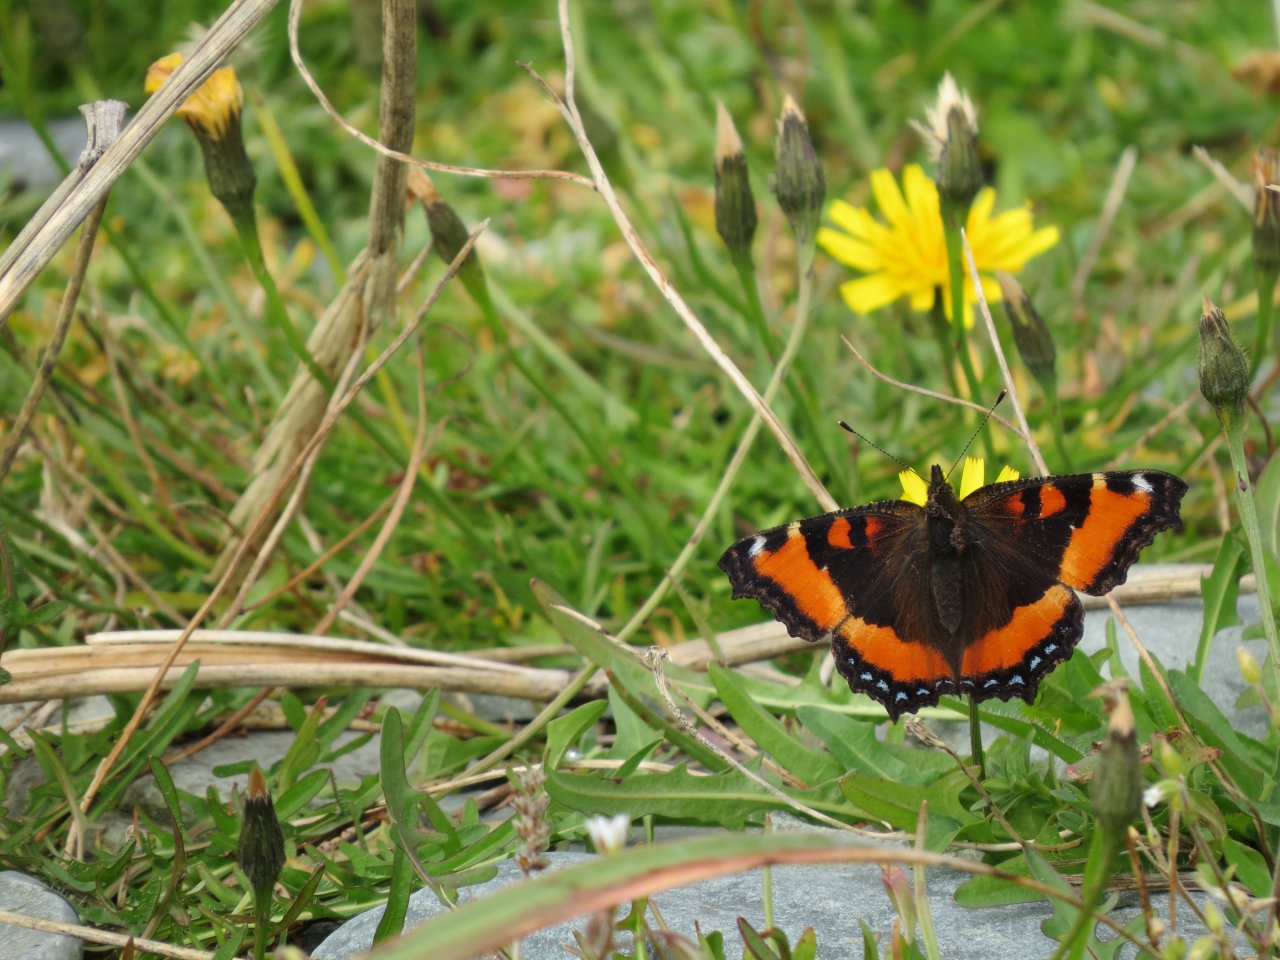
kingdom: Animalia
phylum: Arthropoda
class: Insecta
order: Lepidoptera
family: Nymphalidae
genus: Aglais
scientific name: Aglais milberti
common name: Milbert's Tortoiseshell
